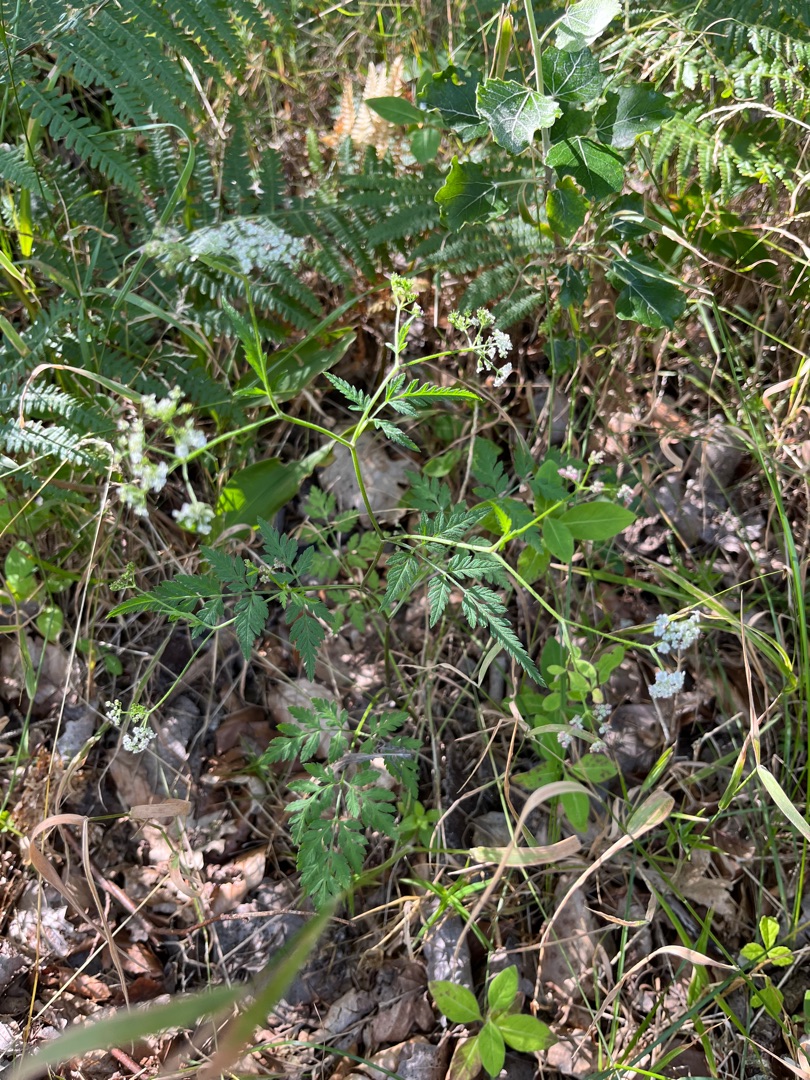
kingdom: Plantae
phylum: Tracheophyta
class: Magnoliopsida
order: Apiales
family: Apiaceae
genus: Torilis
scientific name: Torilis japonica
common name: Hvas randfrø
